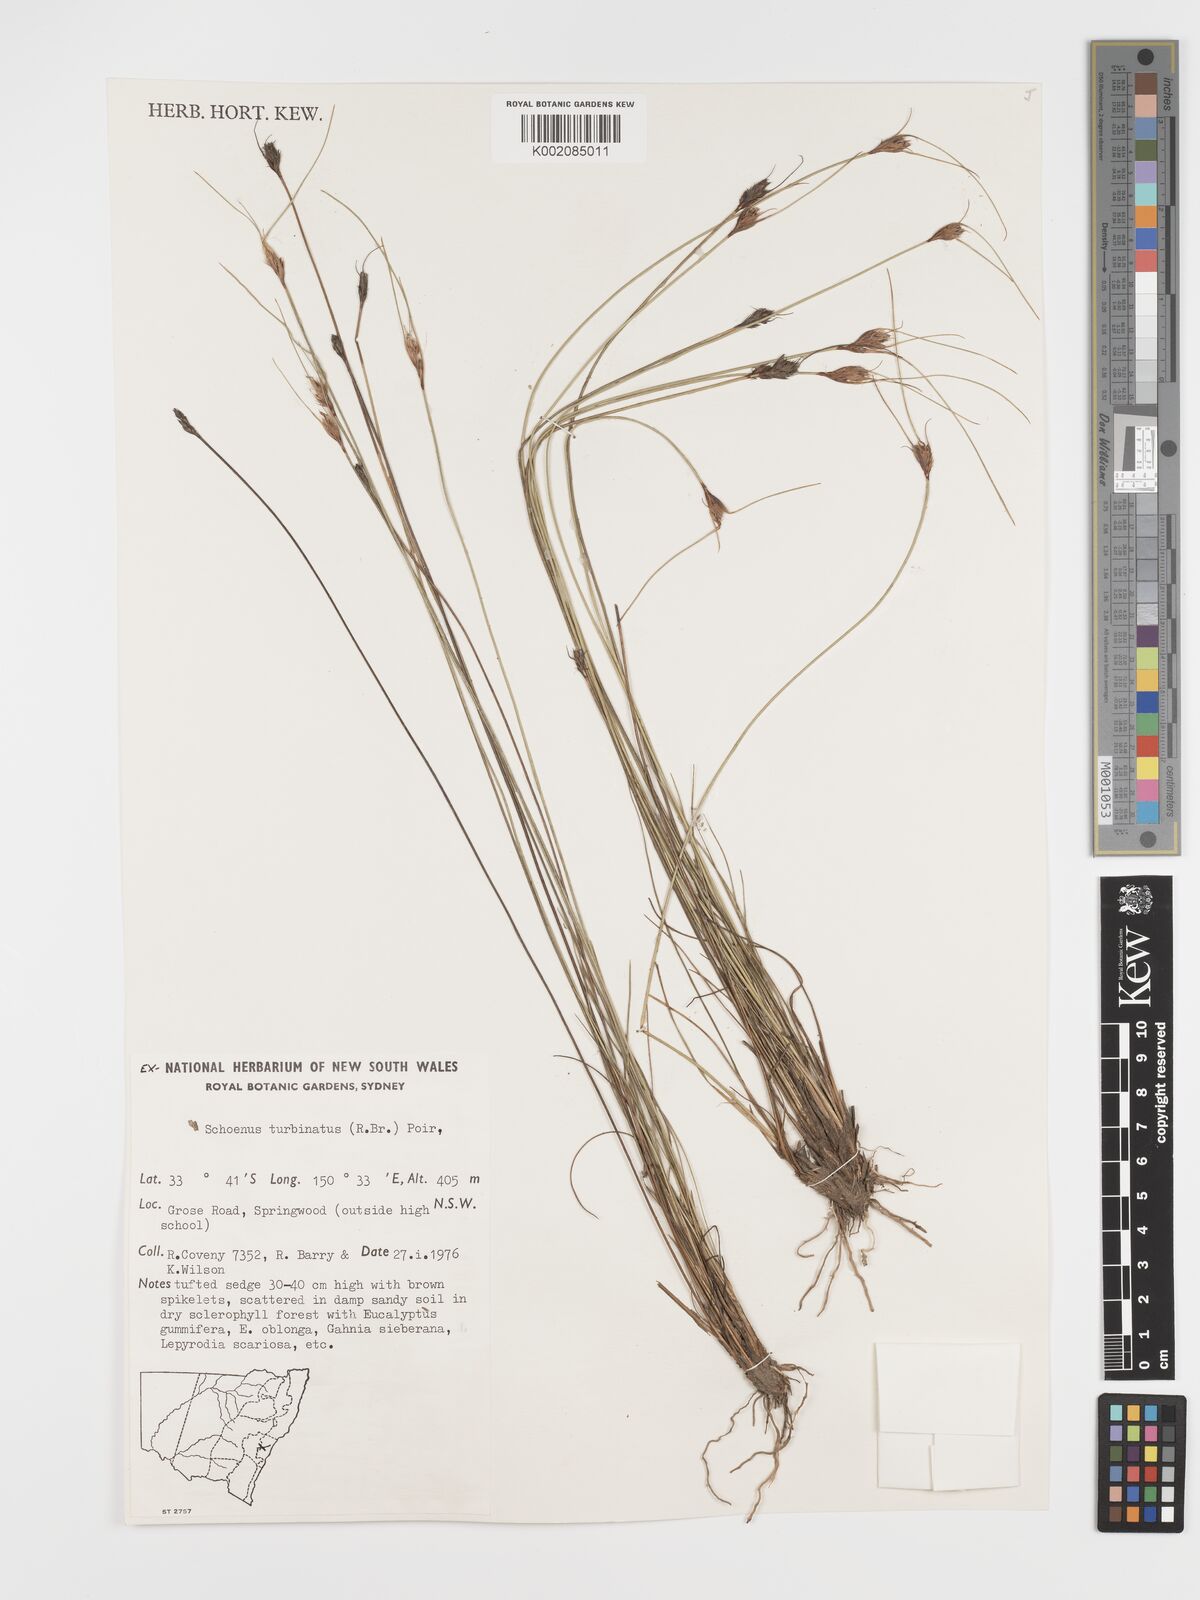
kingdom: Plantae
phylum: Tracheophyta
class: Liliopsida
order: Poales
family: Cyperaceae
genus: Schoenus
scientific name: Schoenus turbinatus
